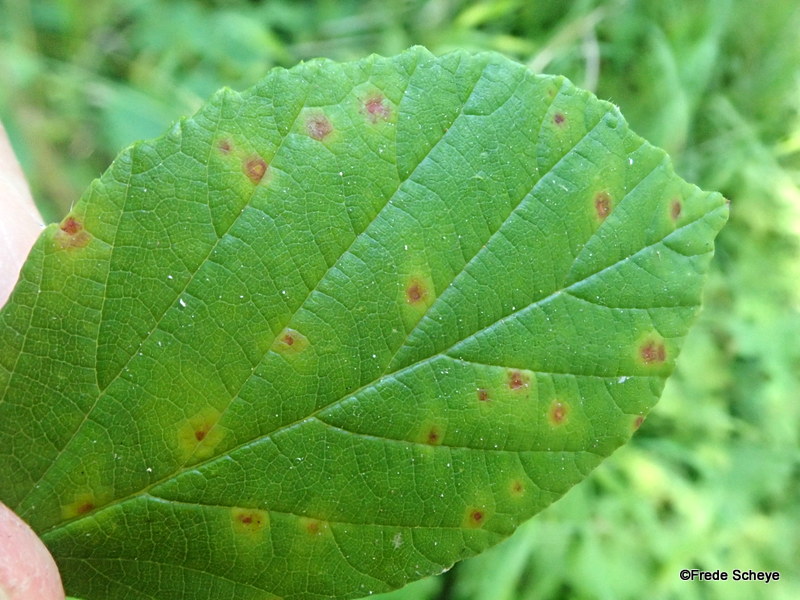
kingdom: Fungi
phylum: Basidiomycota
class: Pucciniomycetes
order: Pucciniales
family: Phragmidiaceae
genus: Phragmidium
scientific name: Phragmidium violaceum
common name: violet flercellerust
